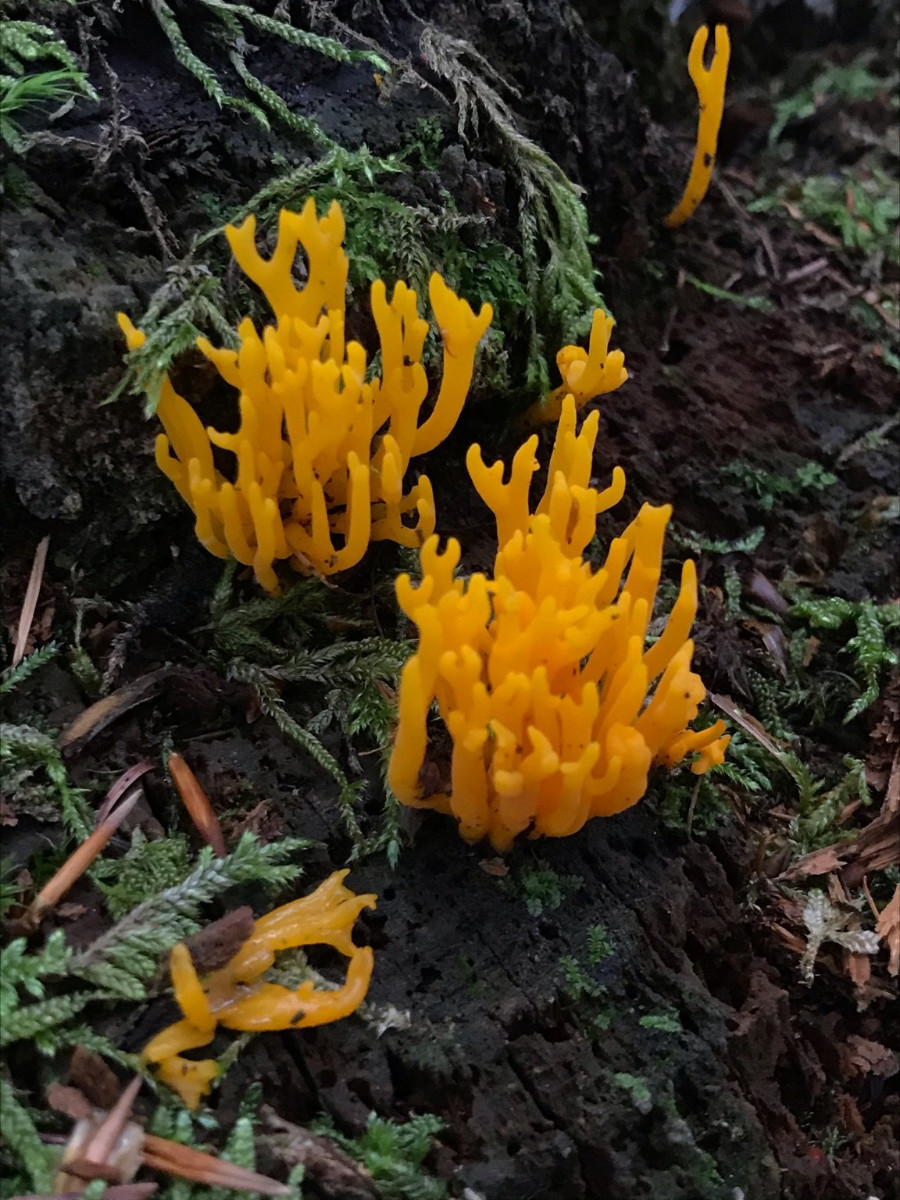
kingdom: Fungi
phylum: Basidiomycota
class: Dacrymycetes
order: Dacrymycetales
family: Dacrymycetaceae
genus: Calocera
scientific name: Calocera viscosa
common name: almindelig guldgaffel
